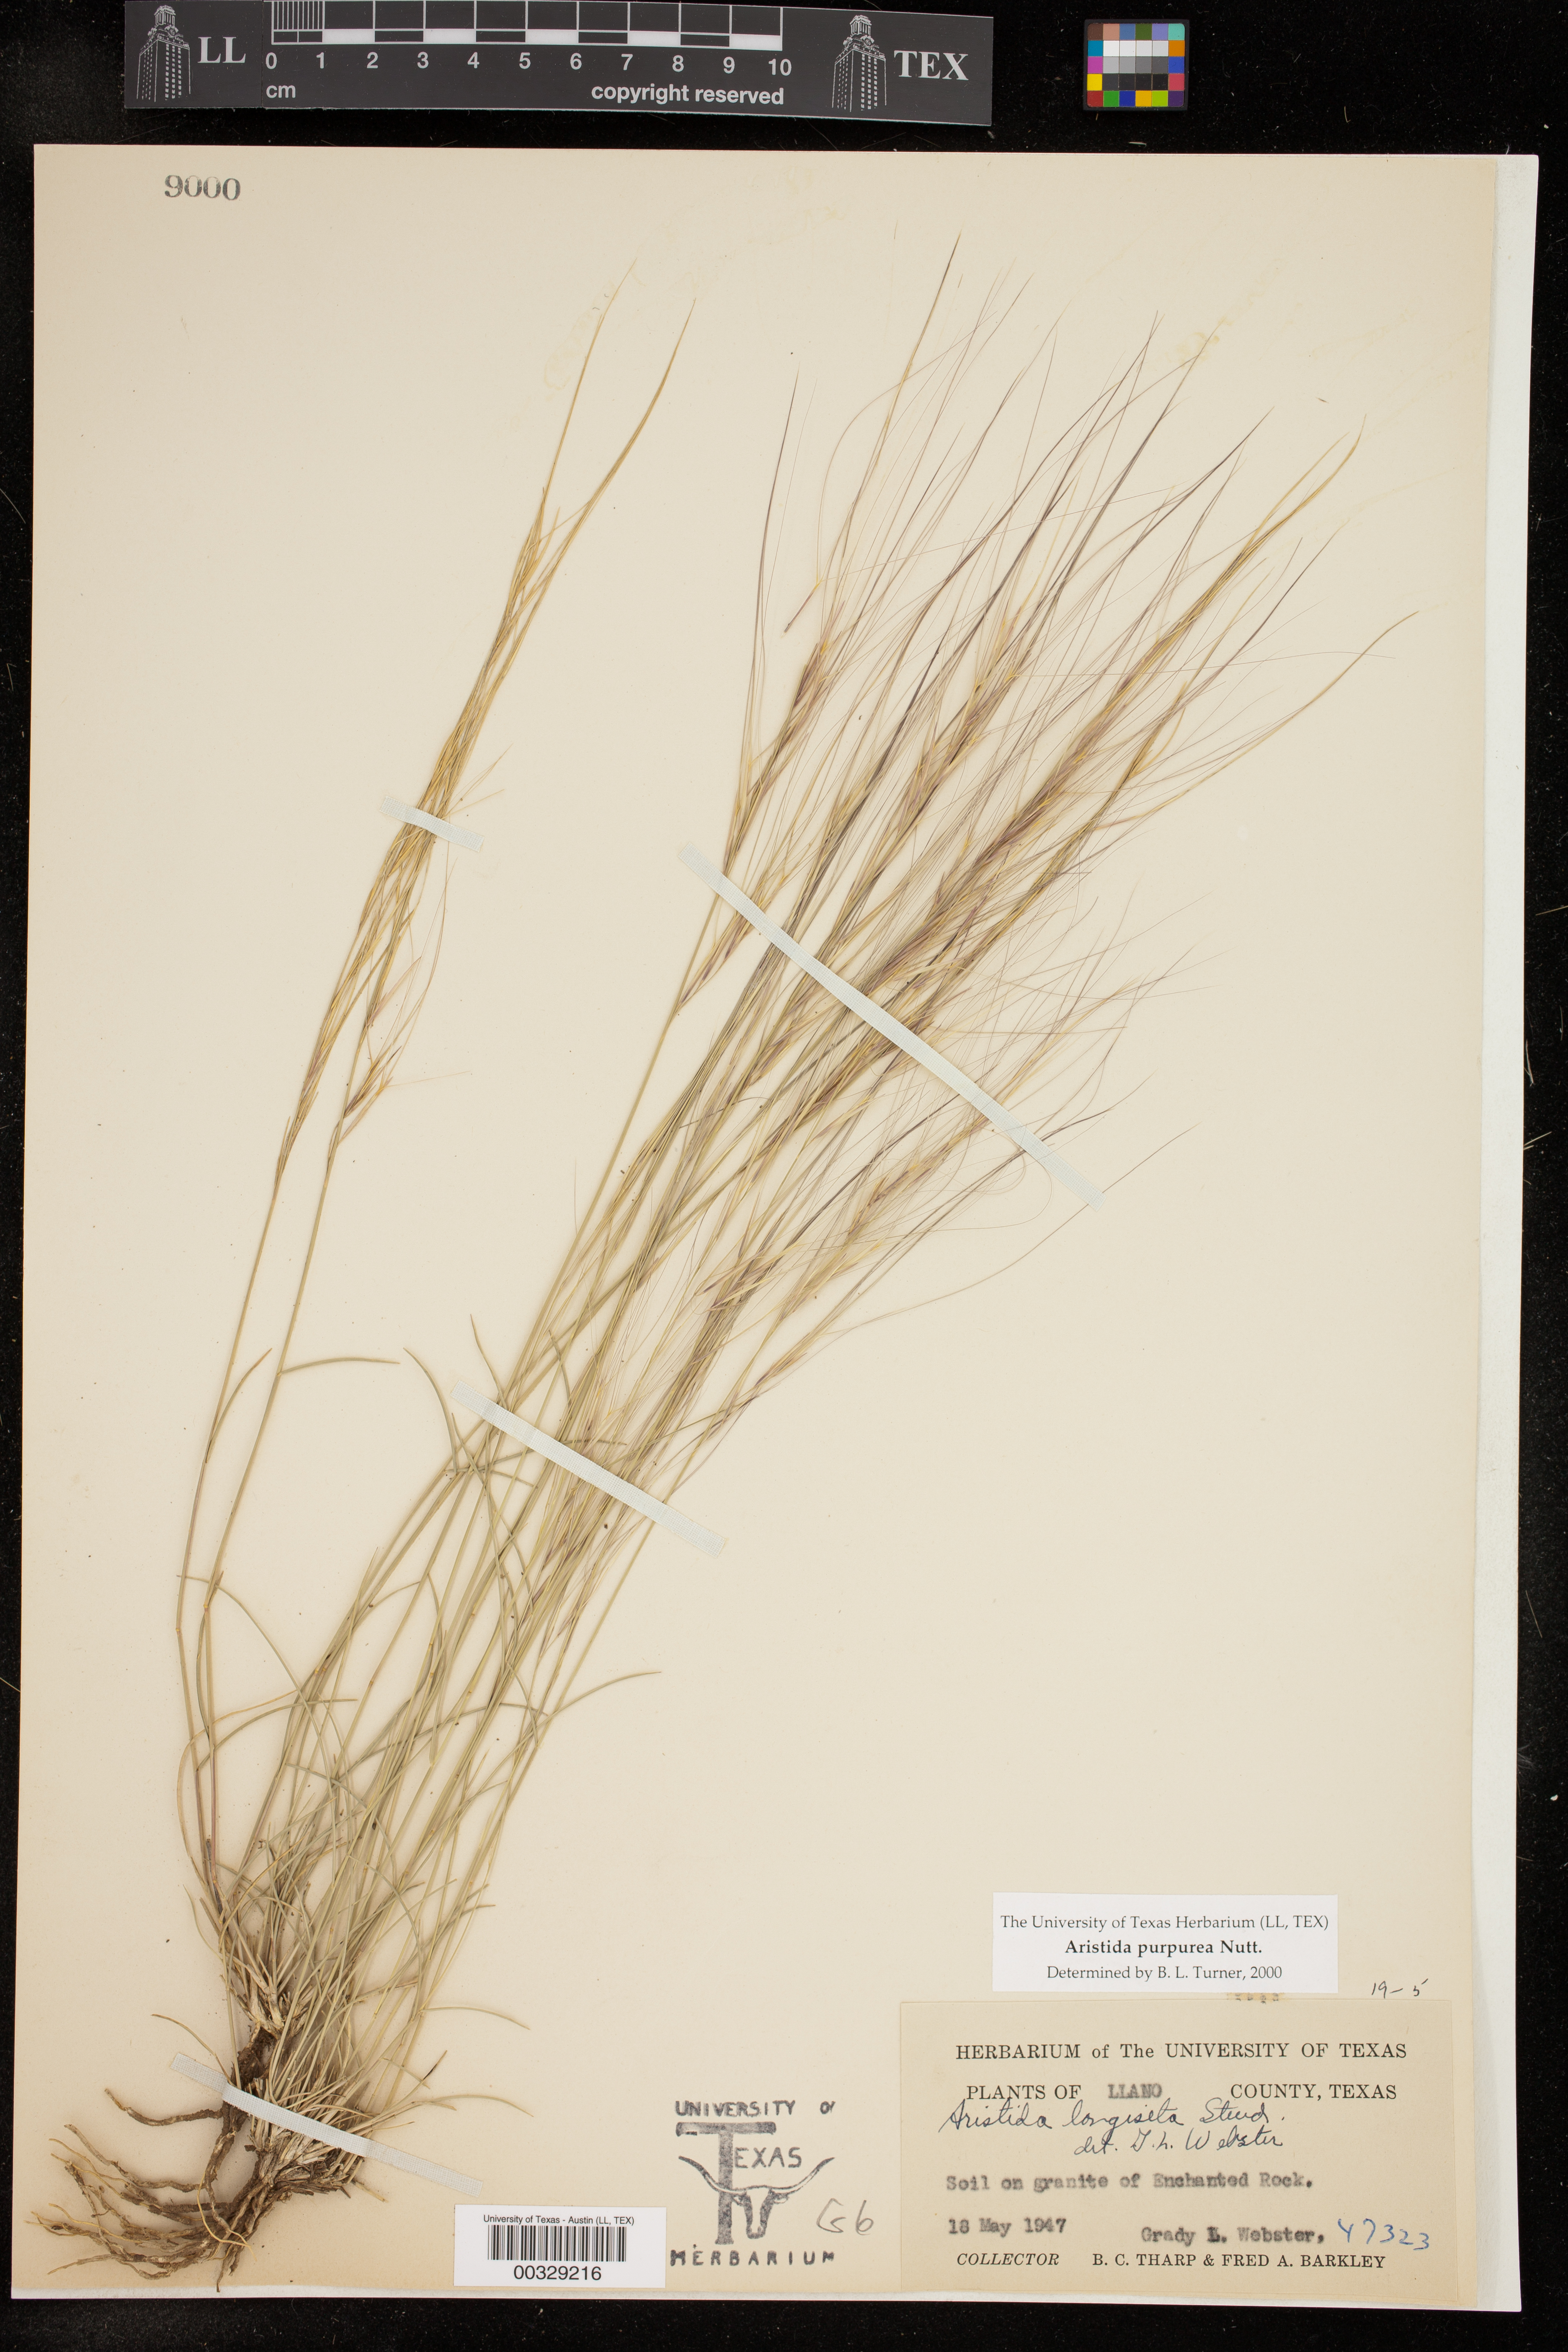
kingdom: Plantae
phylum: Tracheophyta
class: Liliopsida
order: Poales
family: Poaceae
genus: Aristida
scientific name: Aristida purpurea
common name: Purple threeawn
